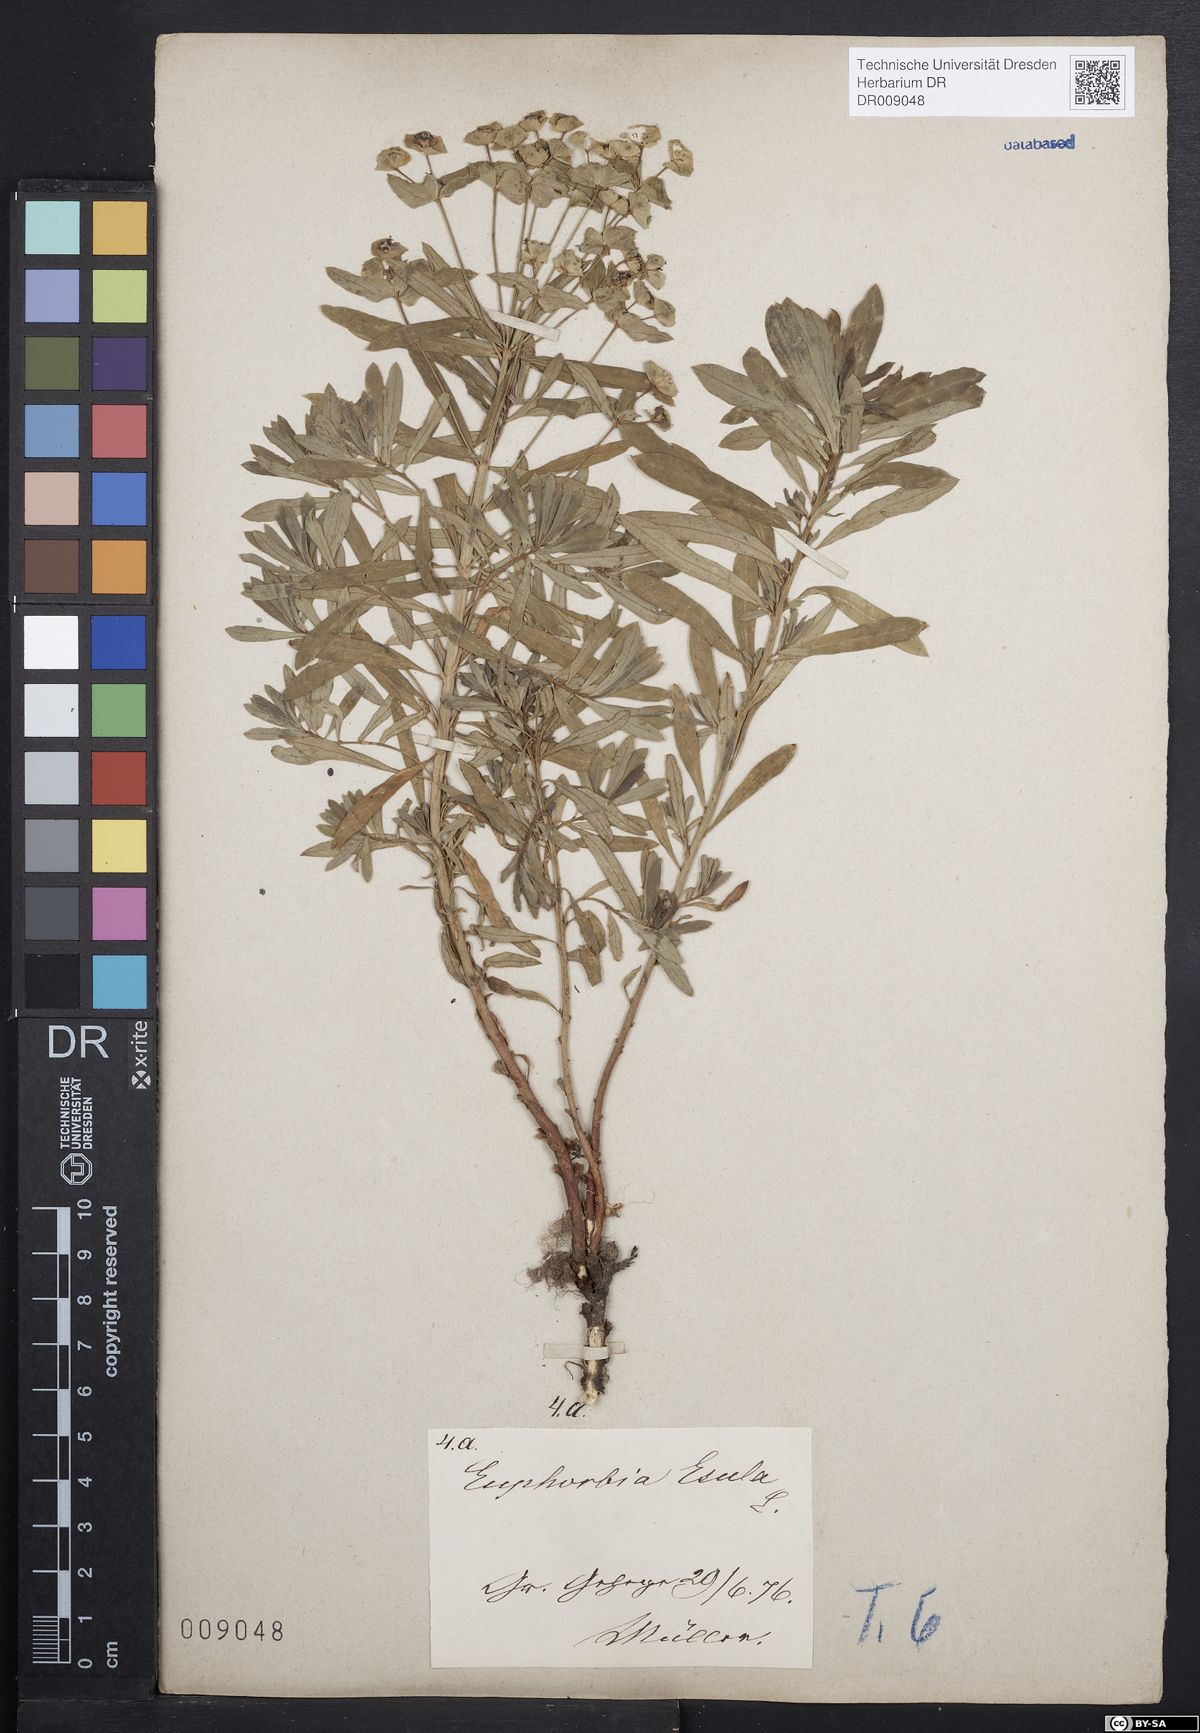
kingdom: Plantae
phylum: Tracheophyta
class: Magnoliopsida
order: Malpighiales
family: Euphorbiaceae
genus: Euphorbia
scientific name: Euphorbia esula
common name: Leafy spurge
